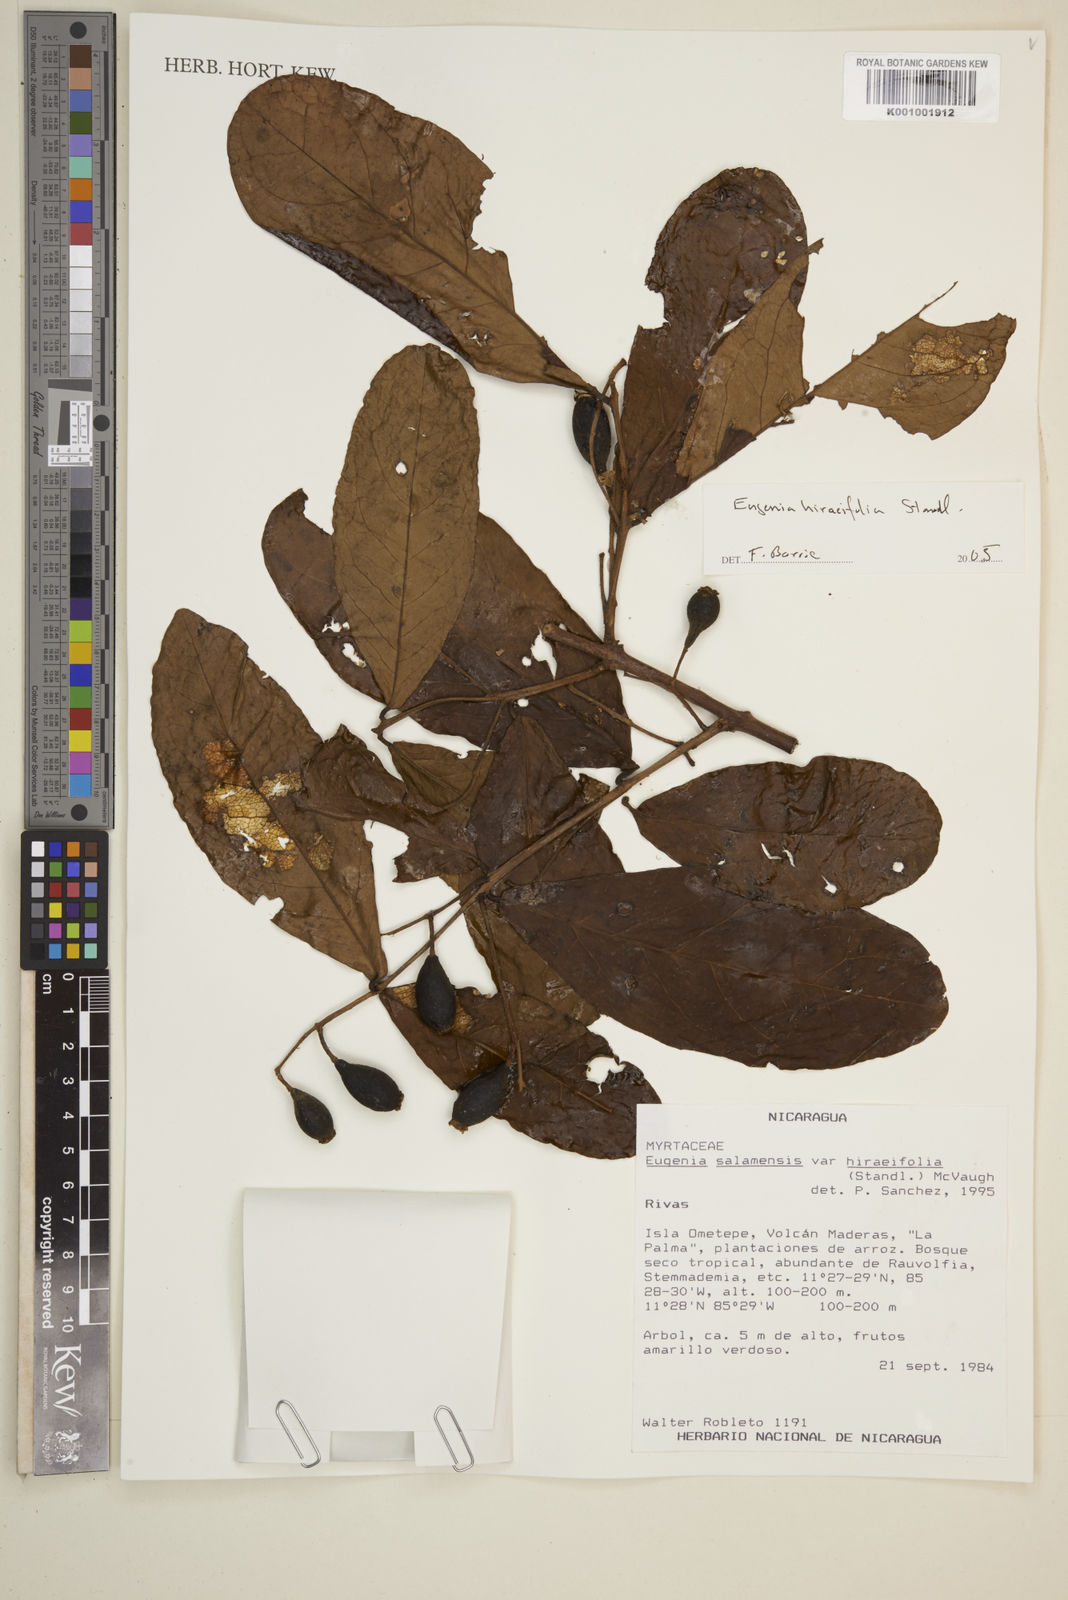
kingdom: Plantae
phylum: Tracheophyta
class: Magnoliopsida
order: Myrtales
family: Myrtaceae
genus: Eugenia
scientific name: Eugenia hiraeifolia
